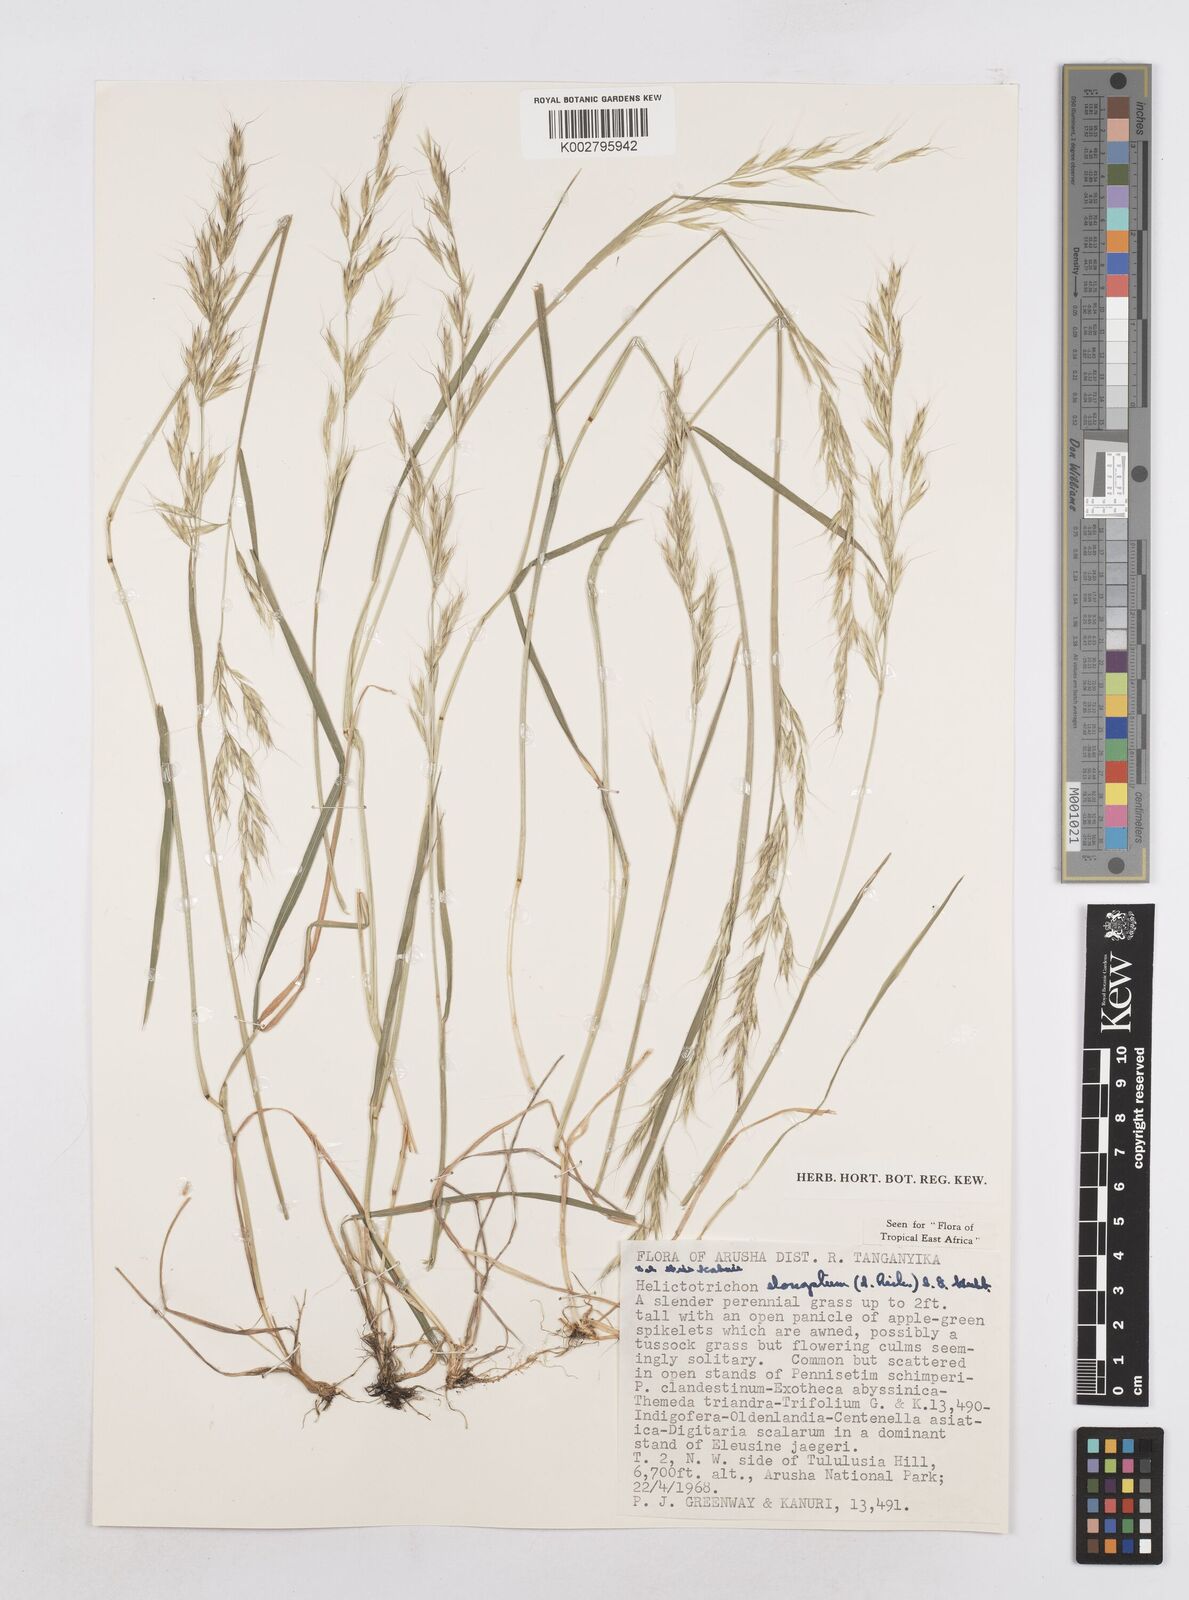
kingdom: Plantae
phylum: Tracheophyta
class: Liliopsida
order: Poales
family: Poaceae
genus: Trisetopsis
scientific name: Trisetopsis elongata
